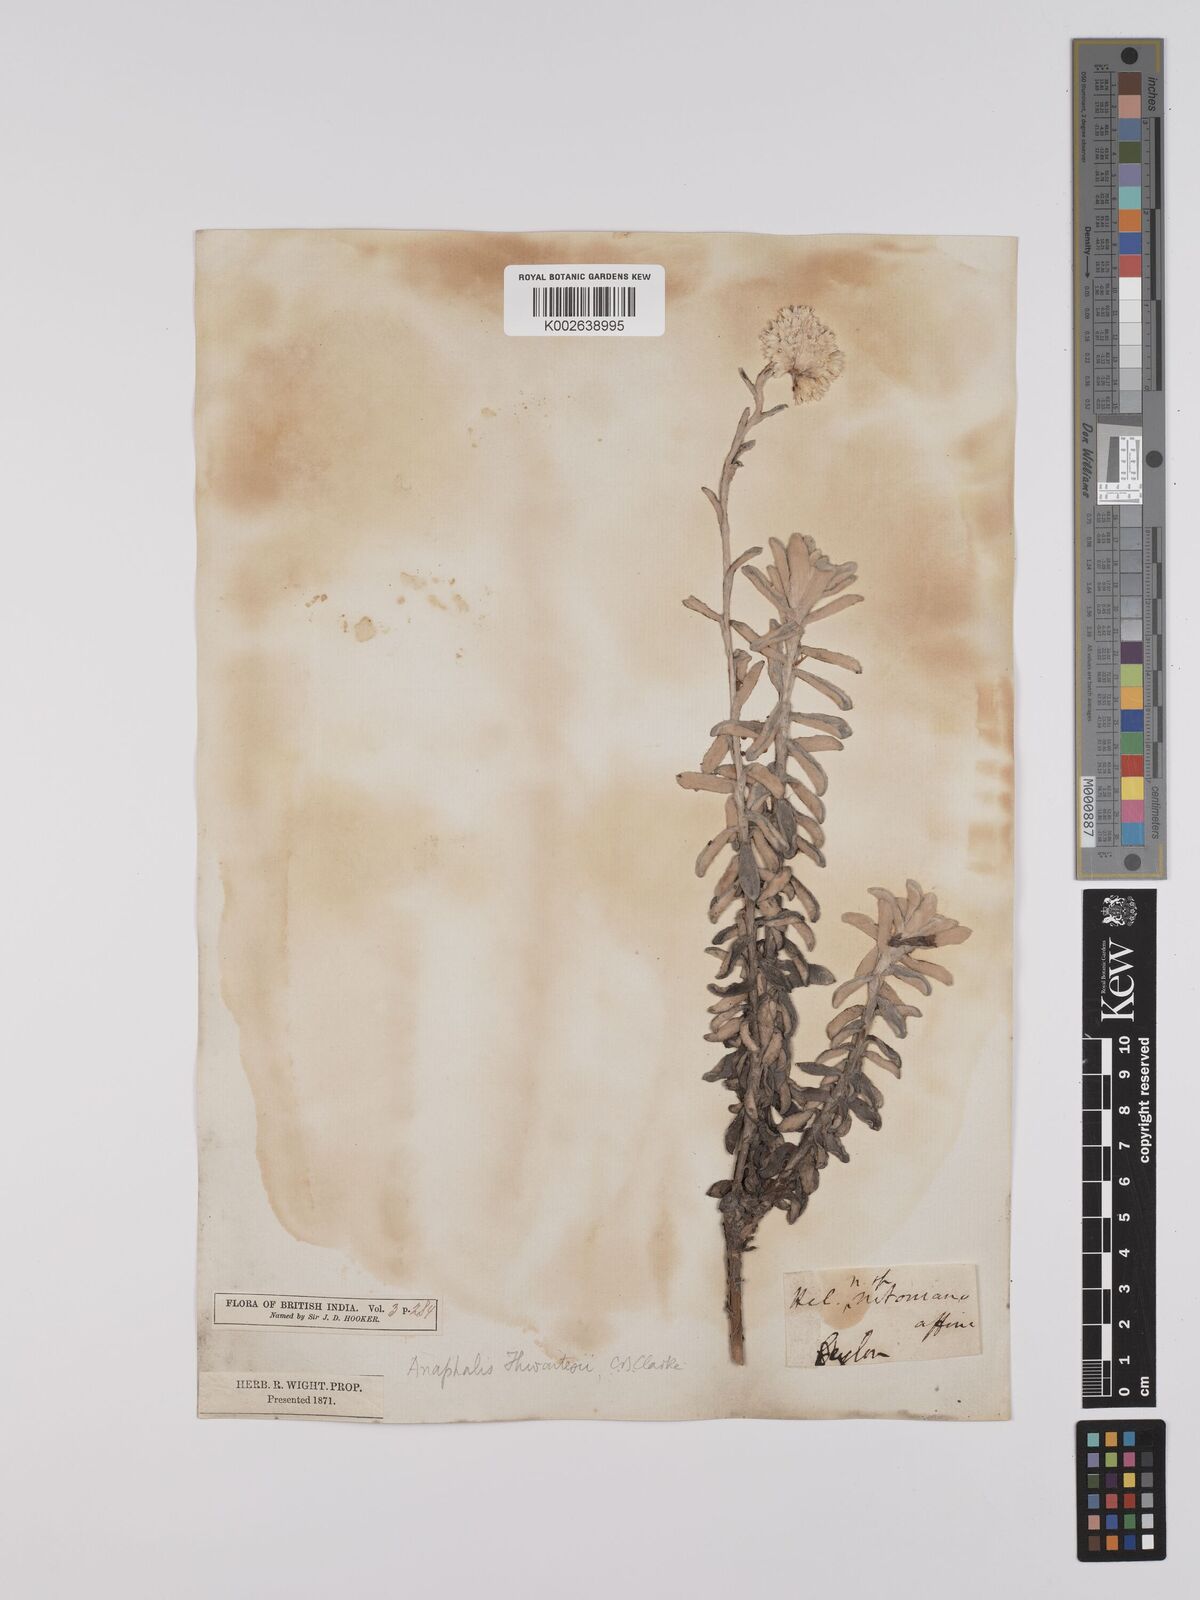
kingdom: Plantae
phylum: Tracheophyta
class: Magnoliopsida
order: Asterales
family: Asteraceae
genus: Anaphalis
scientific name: Anaphalis thwaitesii
